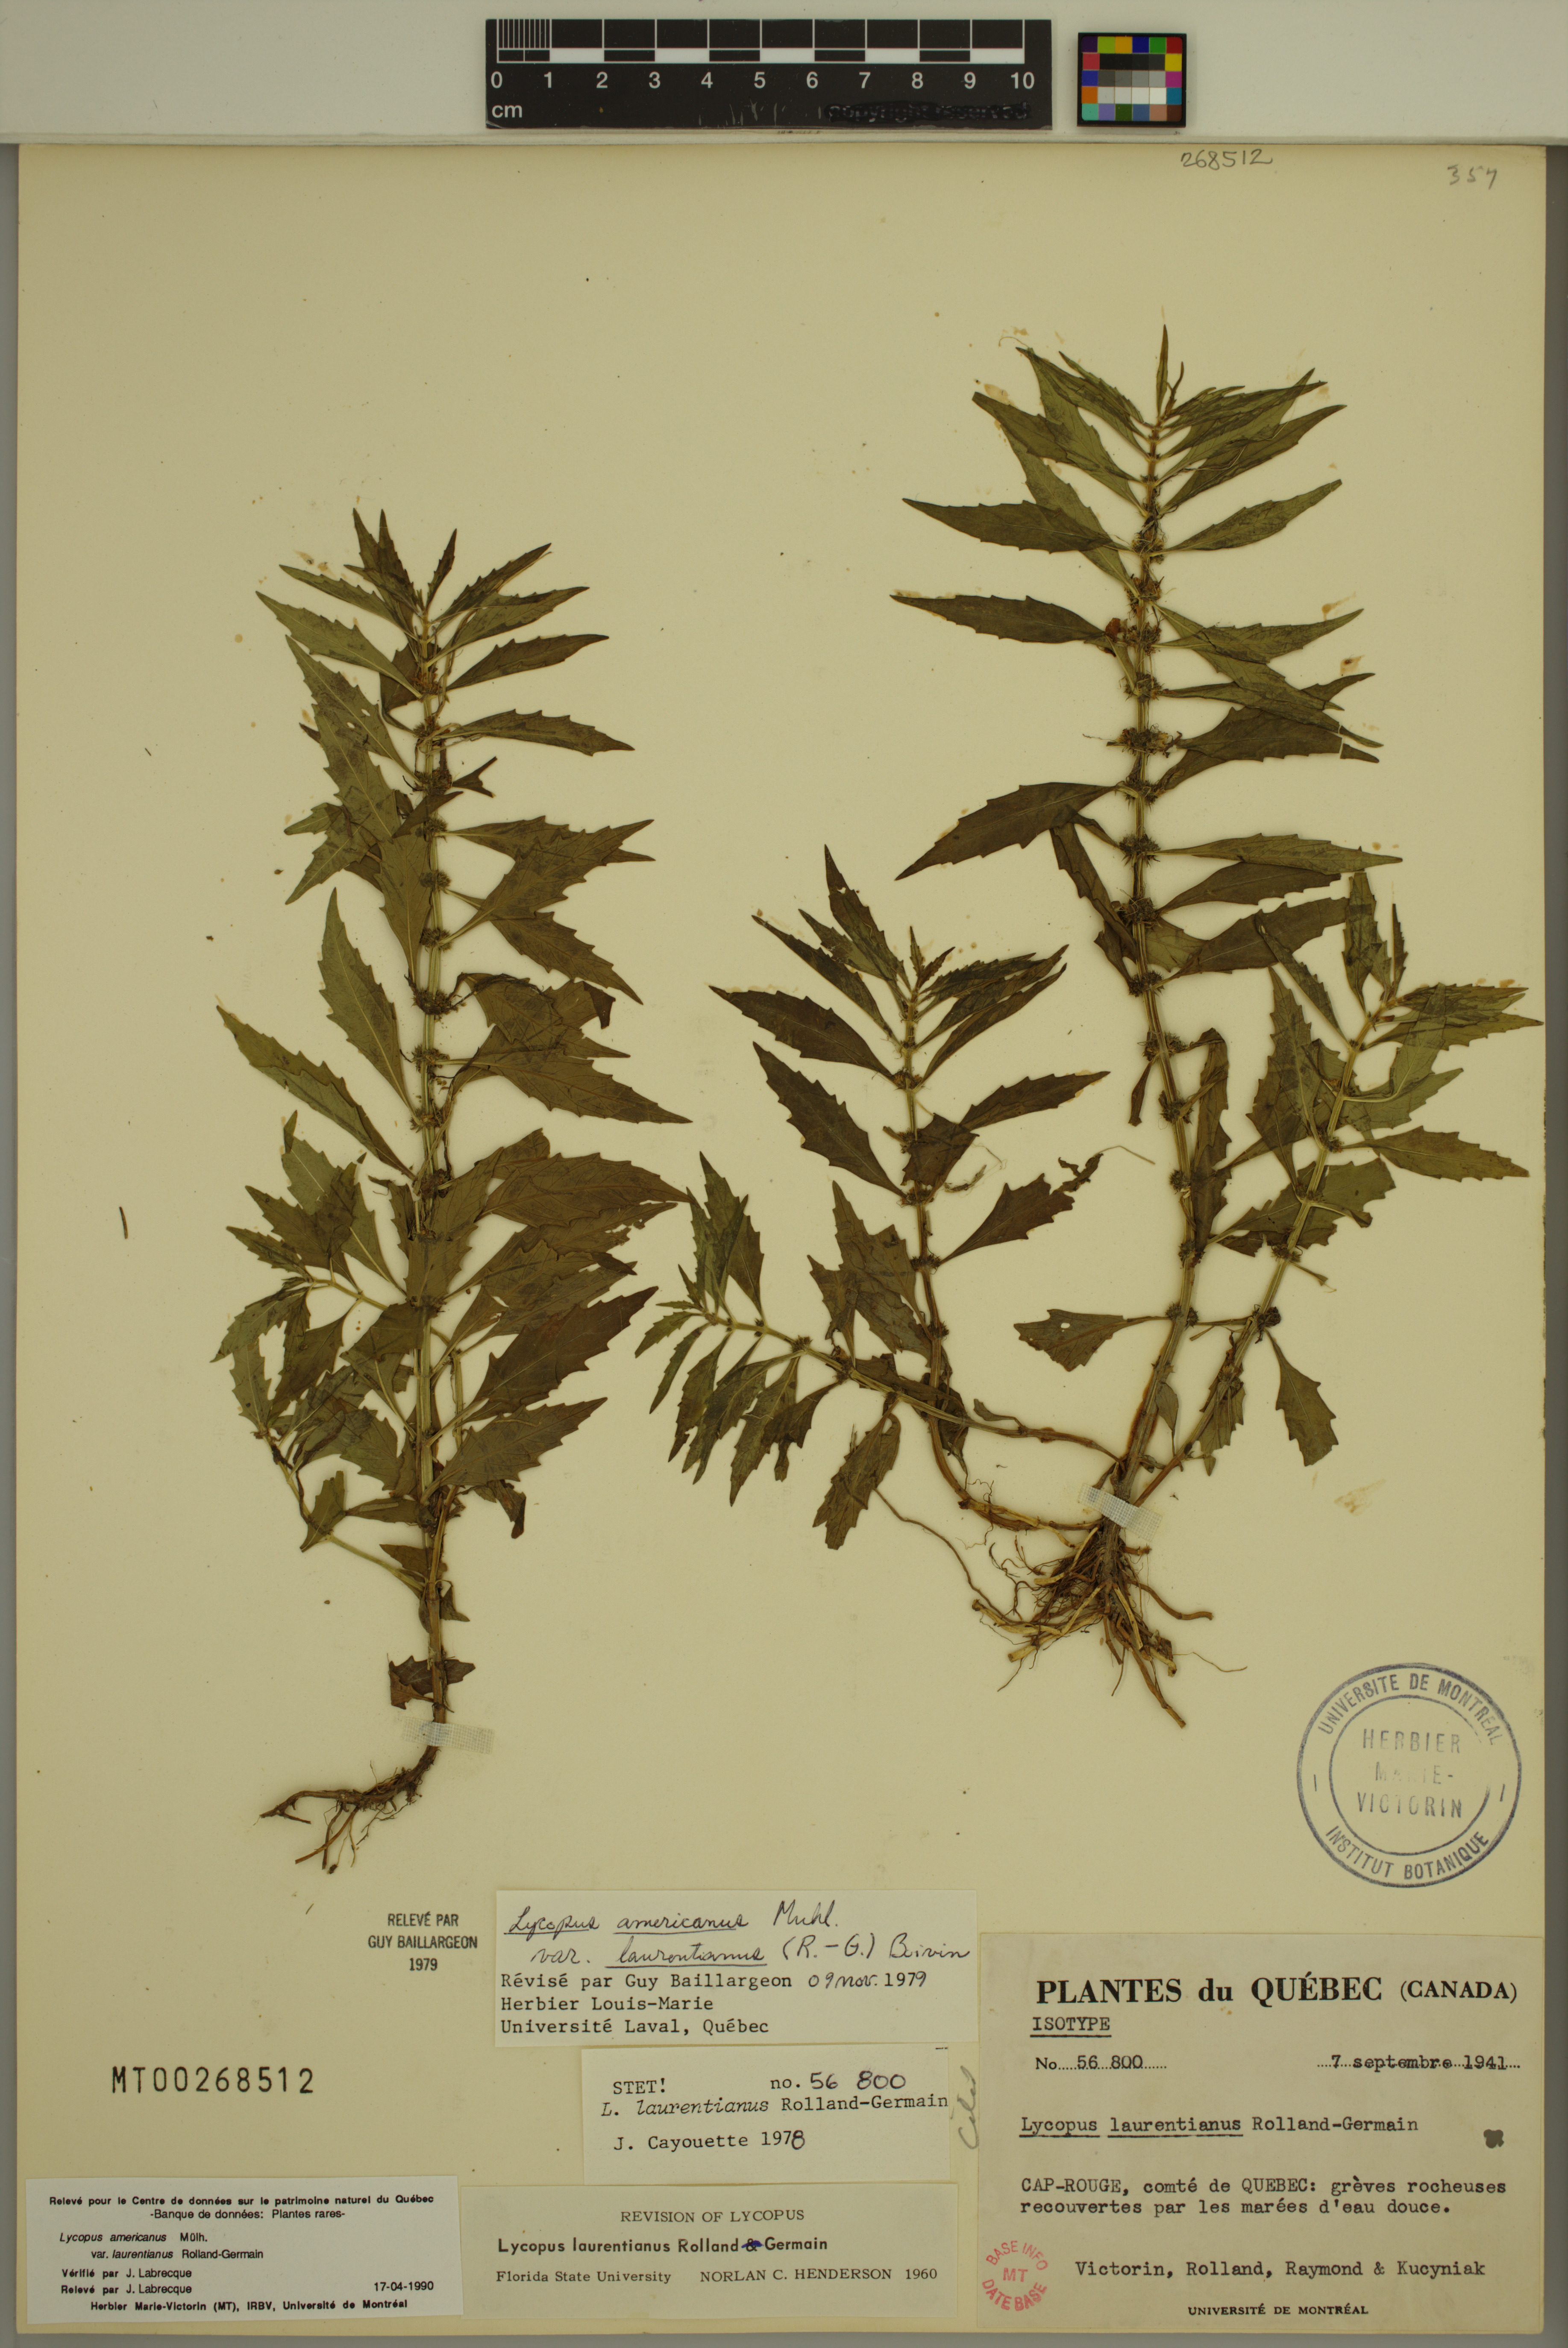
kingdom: Plantae
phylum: Tracheophyta
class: Magnoliopsida
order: Lamiales
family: Lamiaceae
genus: Lycopus
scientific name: Lycopus americanus
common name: American bugleweed
